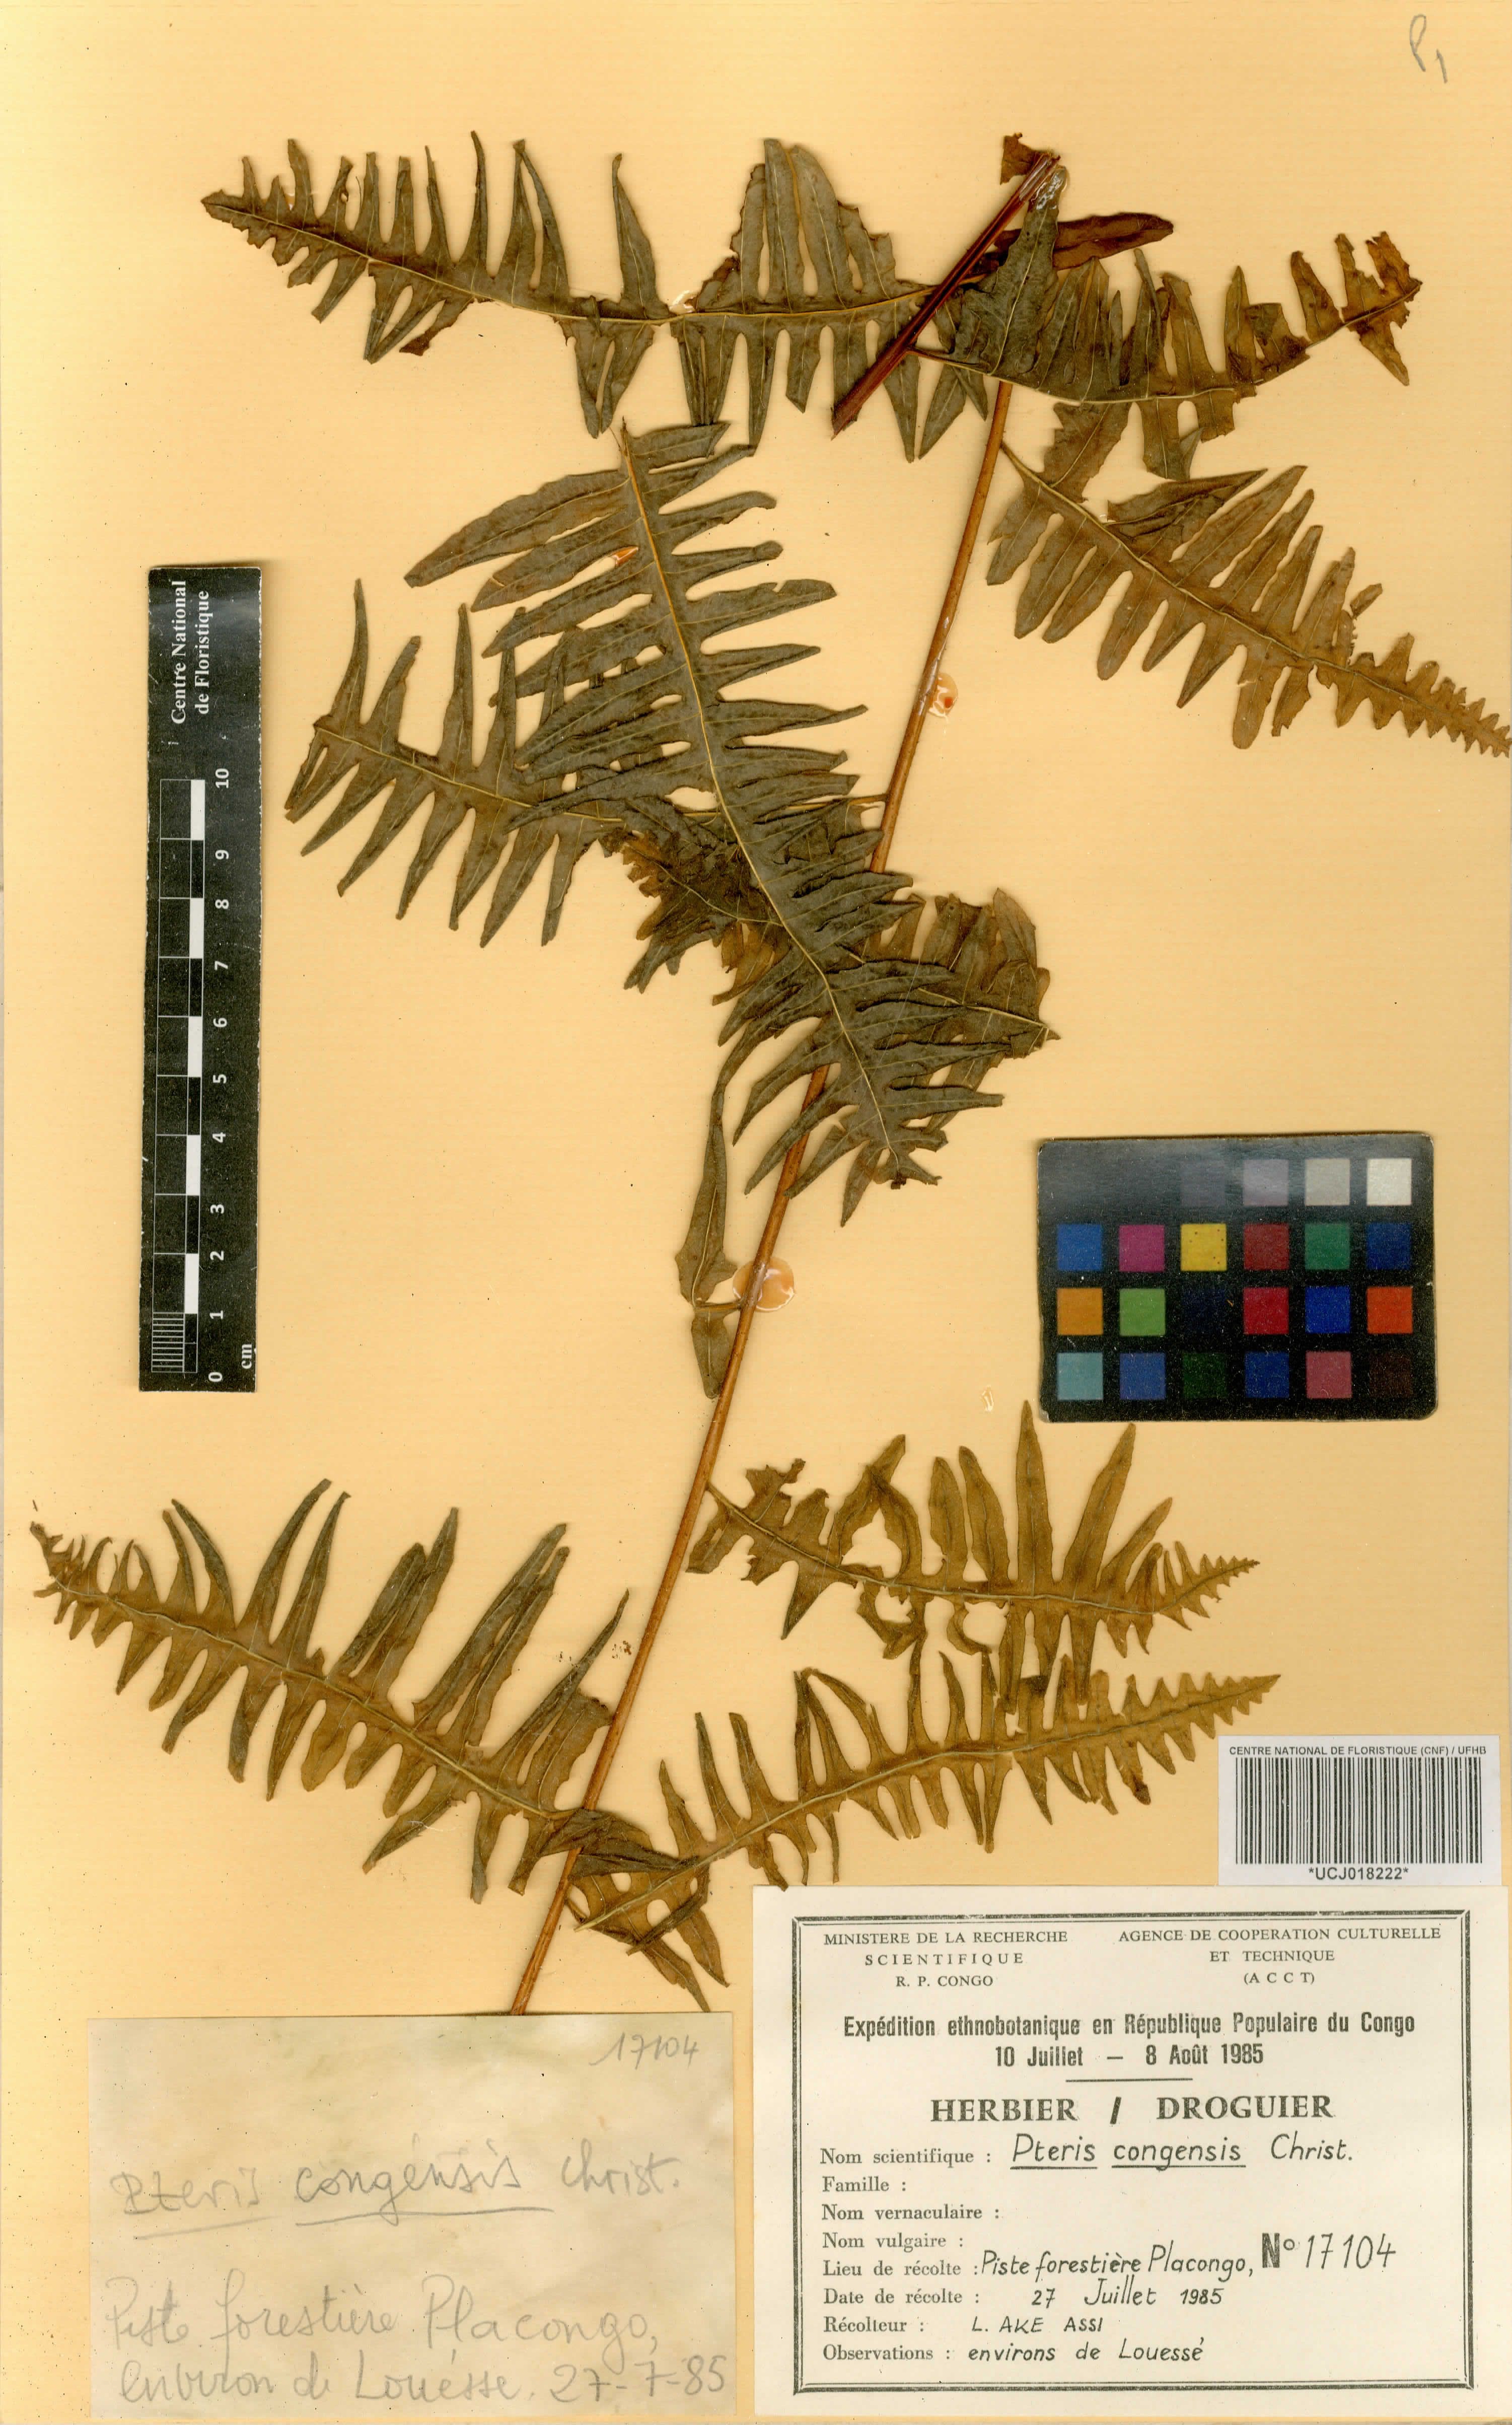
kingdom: Plantae
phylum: Tracheophyta
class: Polypodiopsida
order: Polypodiales
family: Pteridaceae
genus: Pteris
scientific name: Pteris similis
